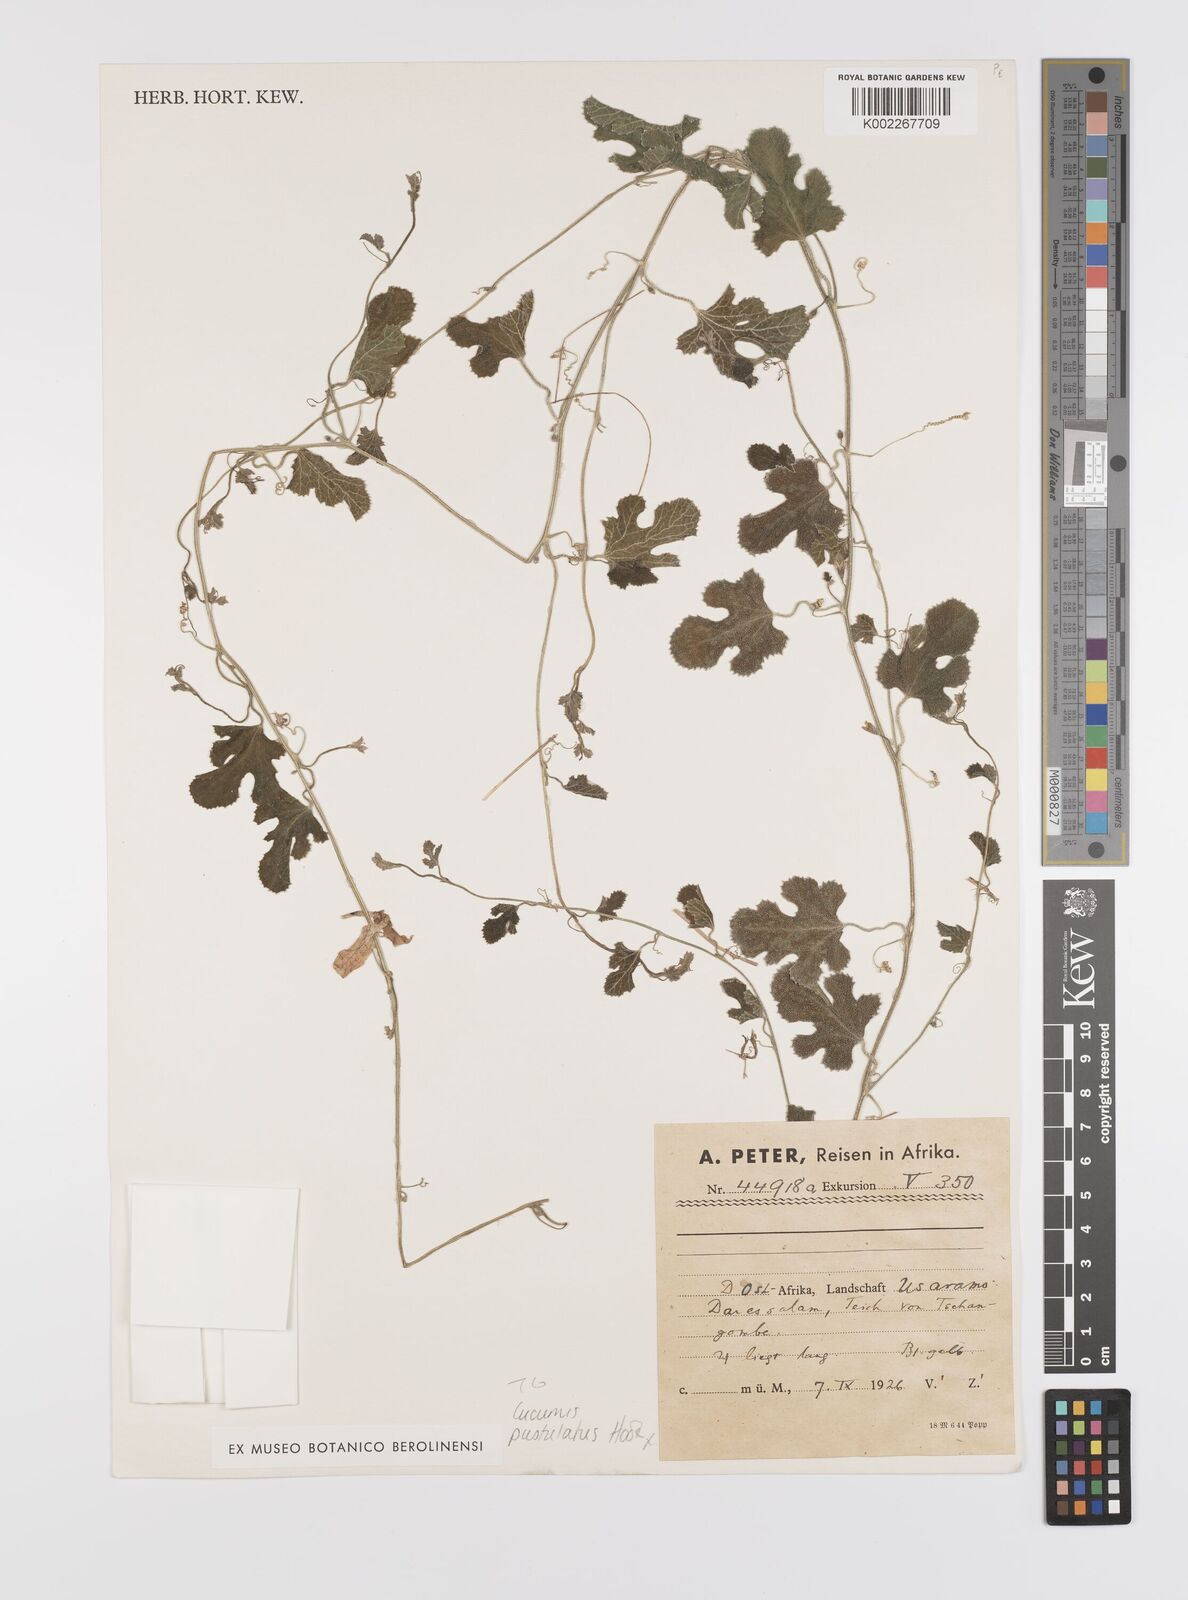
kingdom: Plantae
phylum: Tracheophyta
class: Magnoliopsida
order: Cucurbitales
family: Cucurbitaceae
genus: Cucumis
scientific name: Cucumis pustulatus
